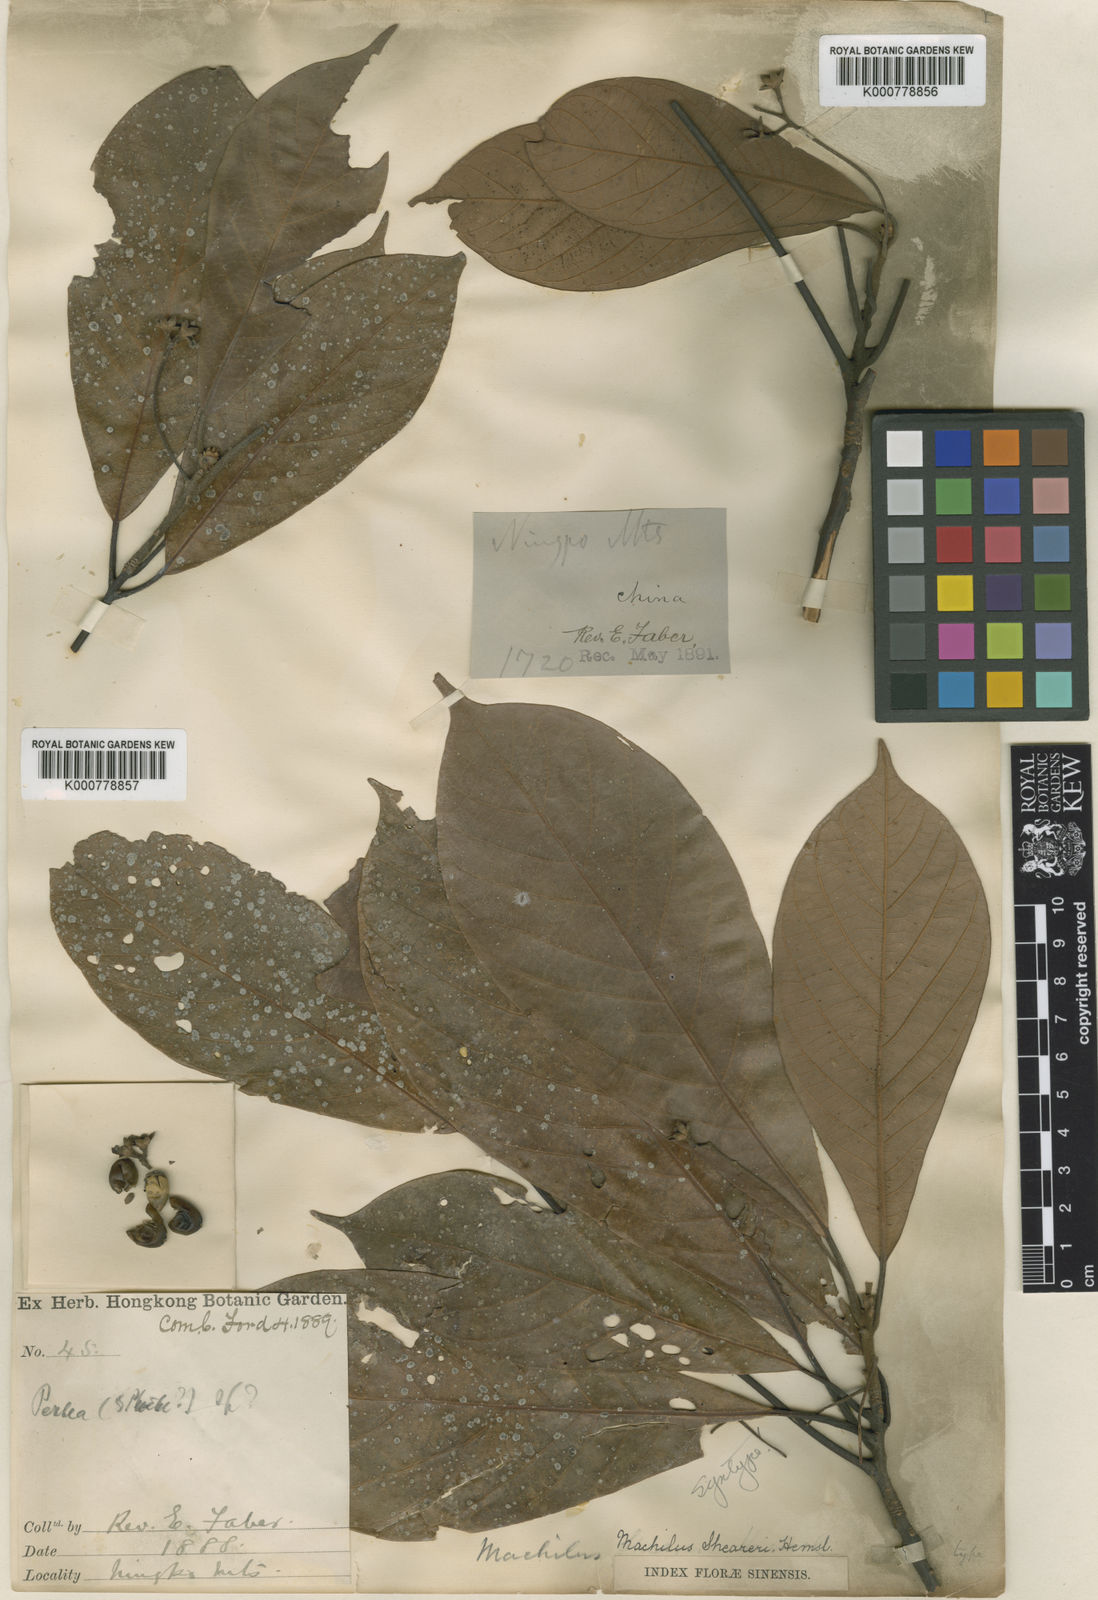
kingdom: Plantae
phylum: Tracheophyta
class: Magnoliopsida
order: Laurales
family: Lauraceae
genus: Phoebe
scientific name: Phoebe sheareri
